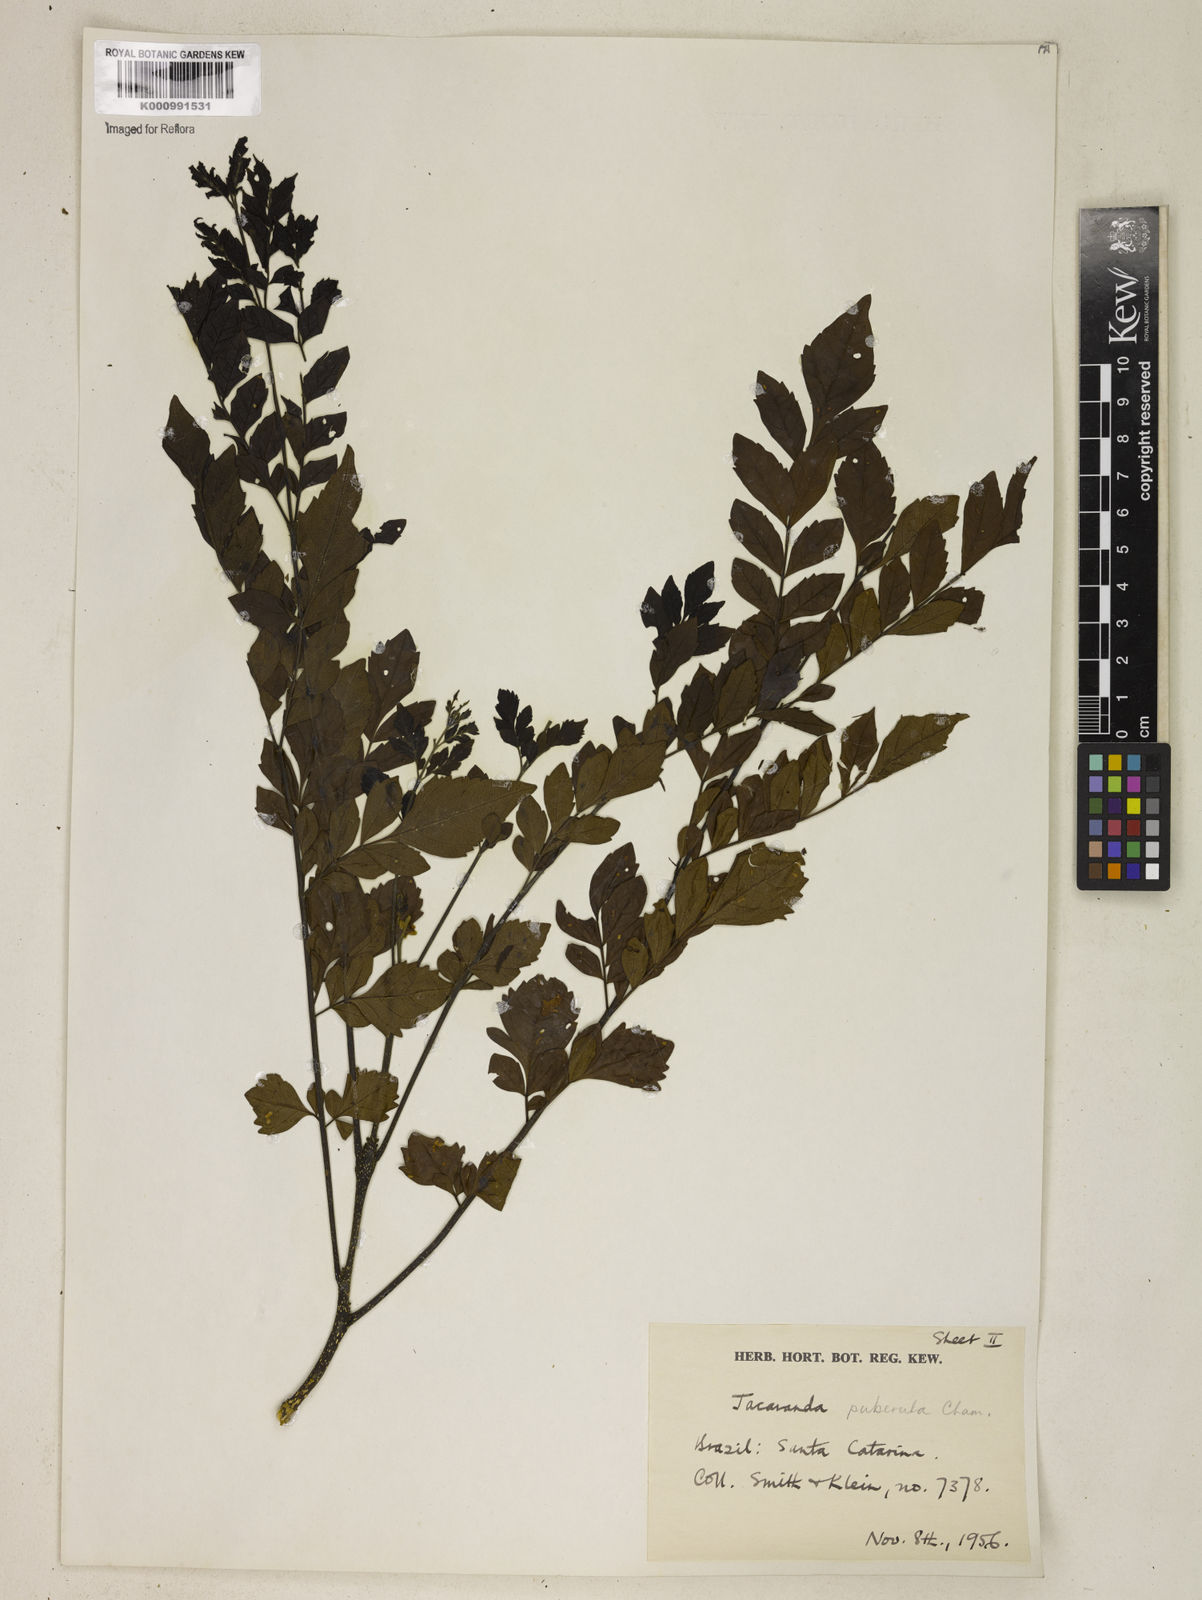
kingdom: Plantae
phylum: Tracheophyta
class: Magnoliopsida
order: Lamiales
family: Bignoniaceae
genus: Jacaranda
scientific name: Jacaranda puberula
